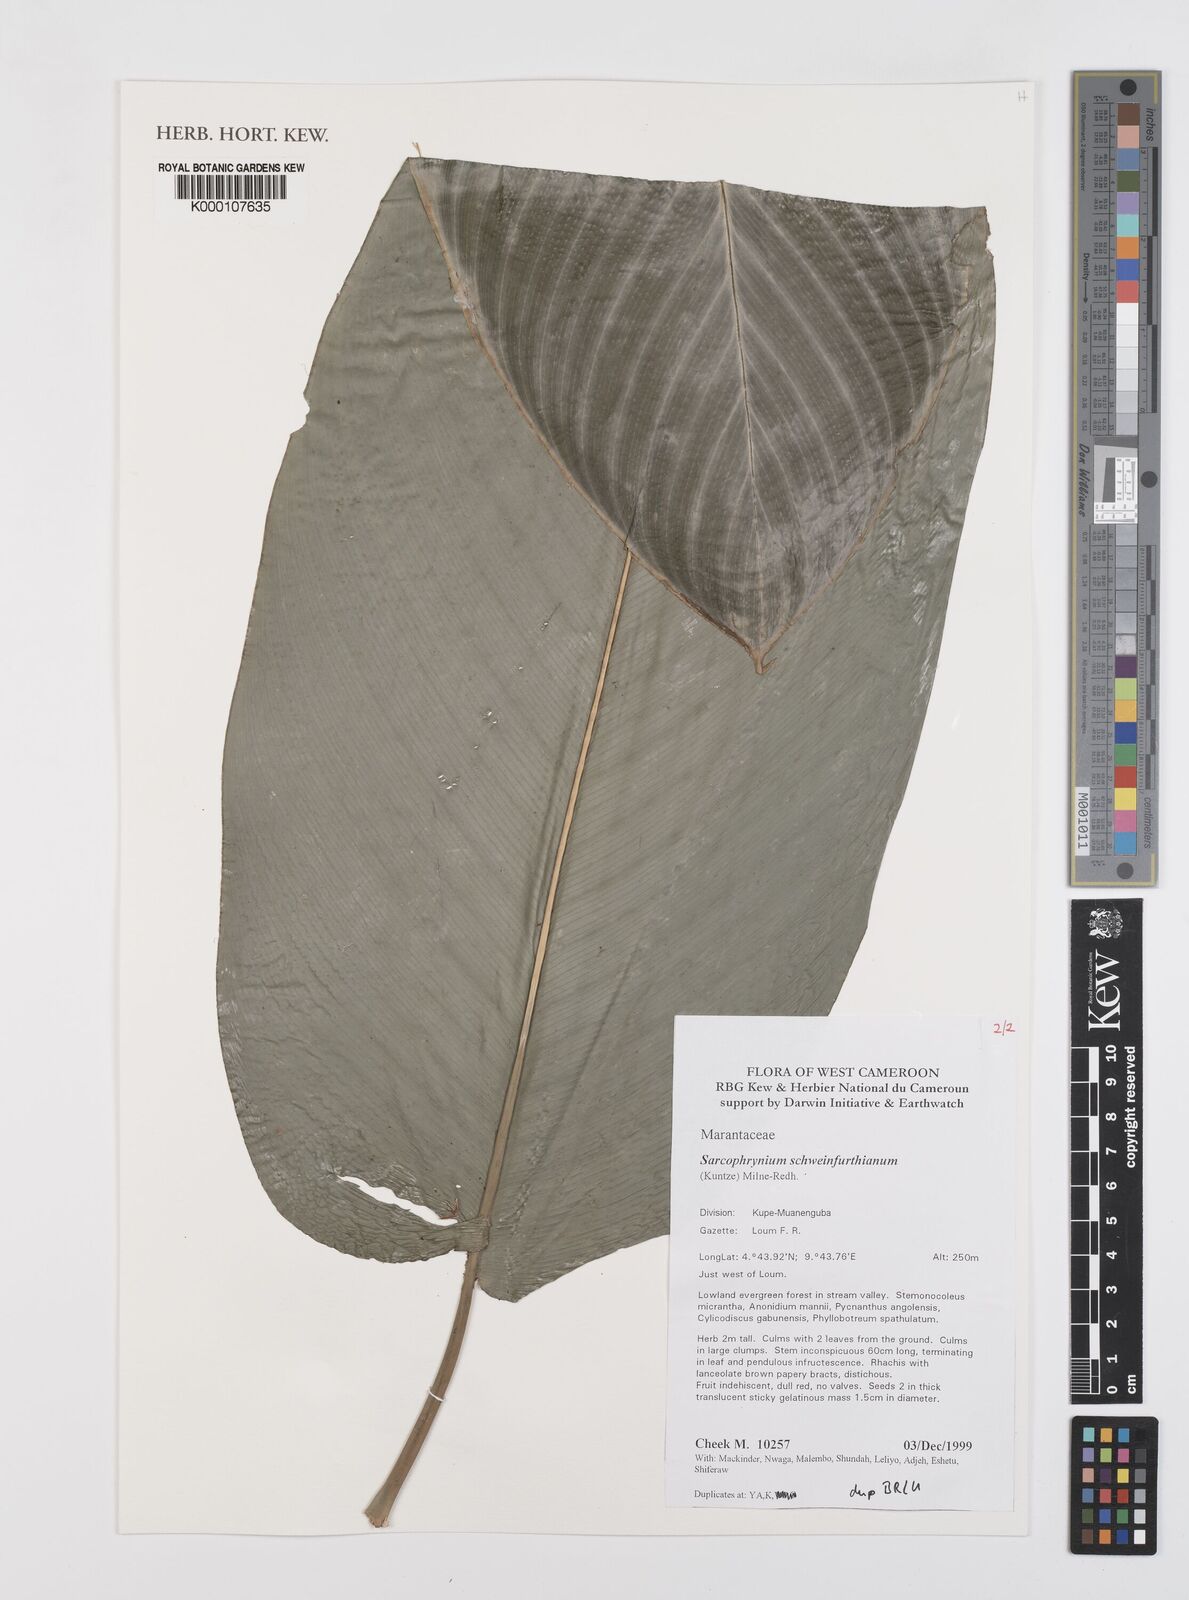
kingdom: Plantae
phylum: Tracheophyta
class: Liliopsida
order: Zingiberales
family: Marantaceae
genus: Sarcophrynium
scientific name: Sarcophrynium schweinfurthianum
